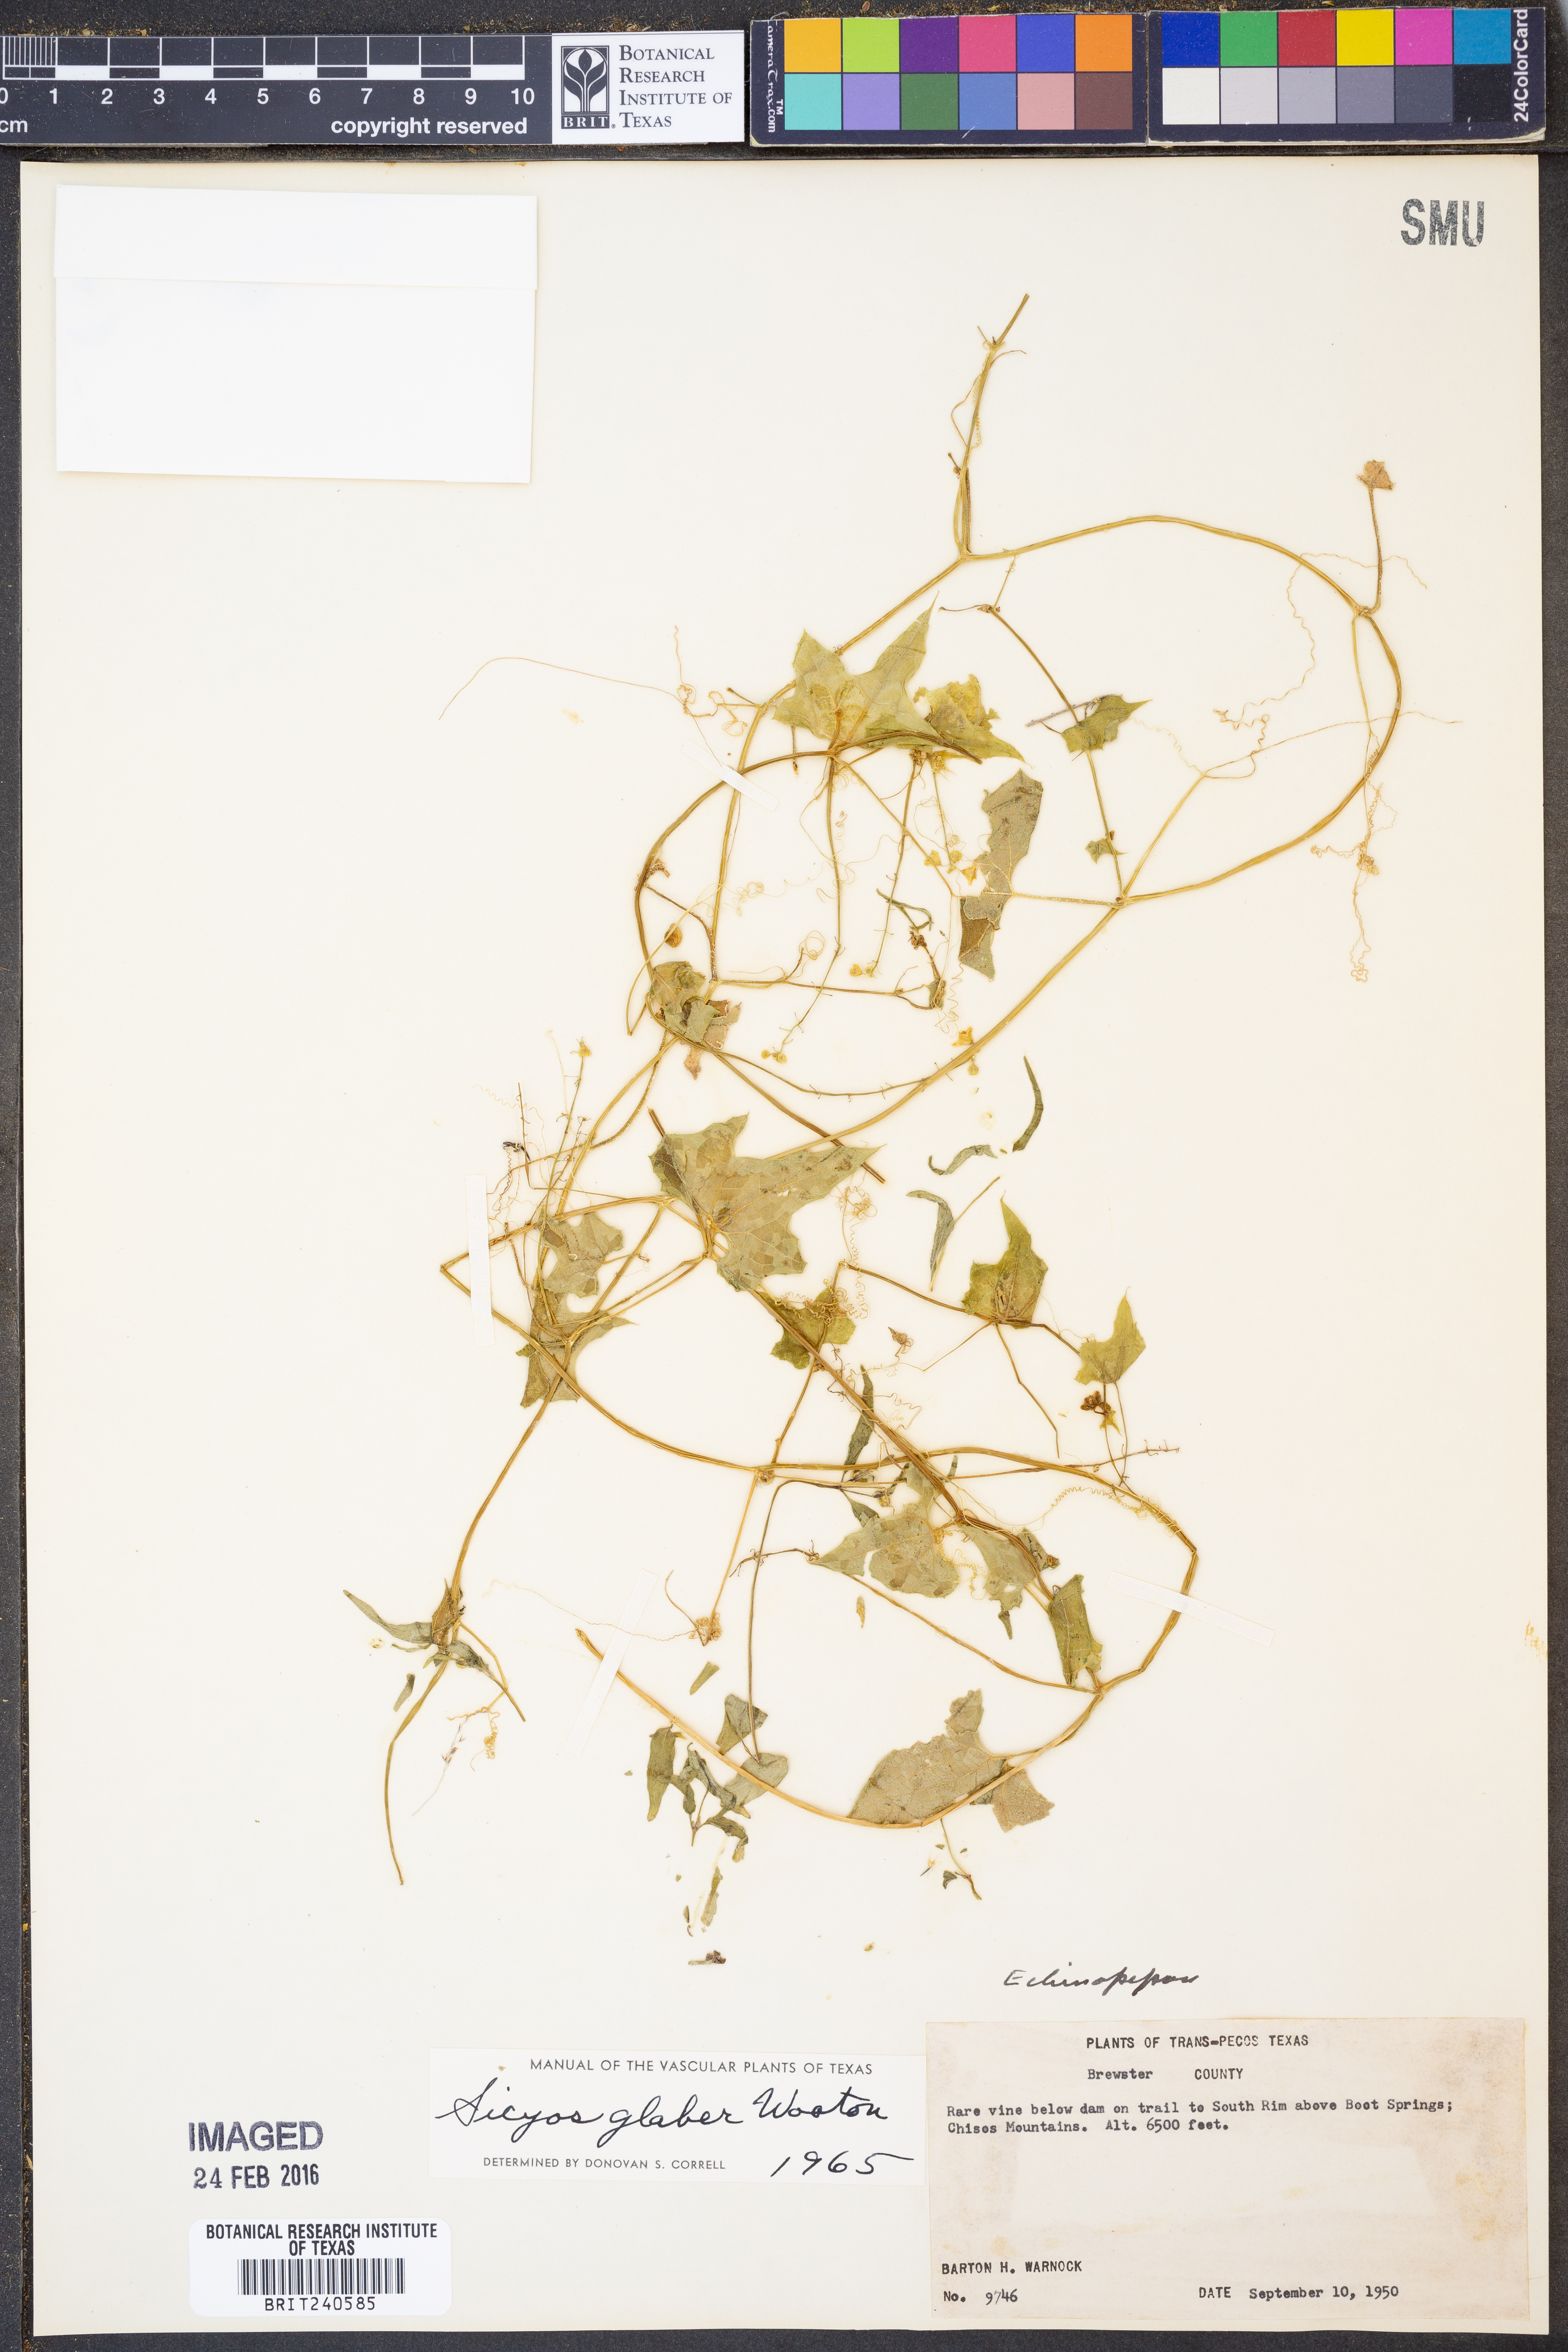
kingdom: Plantae
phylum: Tracheophyta
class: Magnoliopsida
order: Cucurbitales
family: Cucurbitaceae
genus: Sicyos
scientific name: Sicyos glaber
